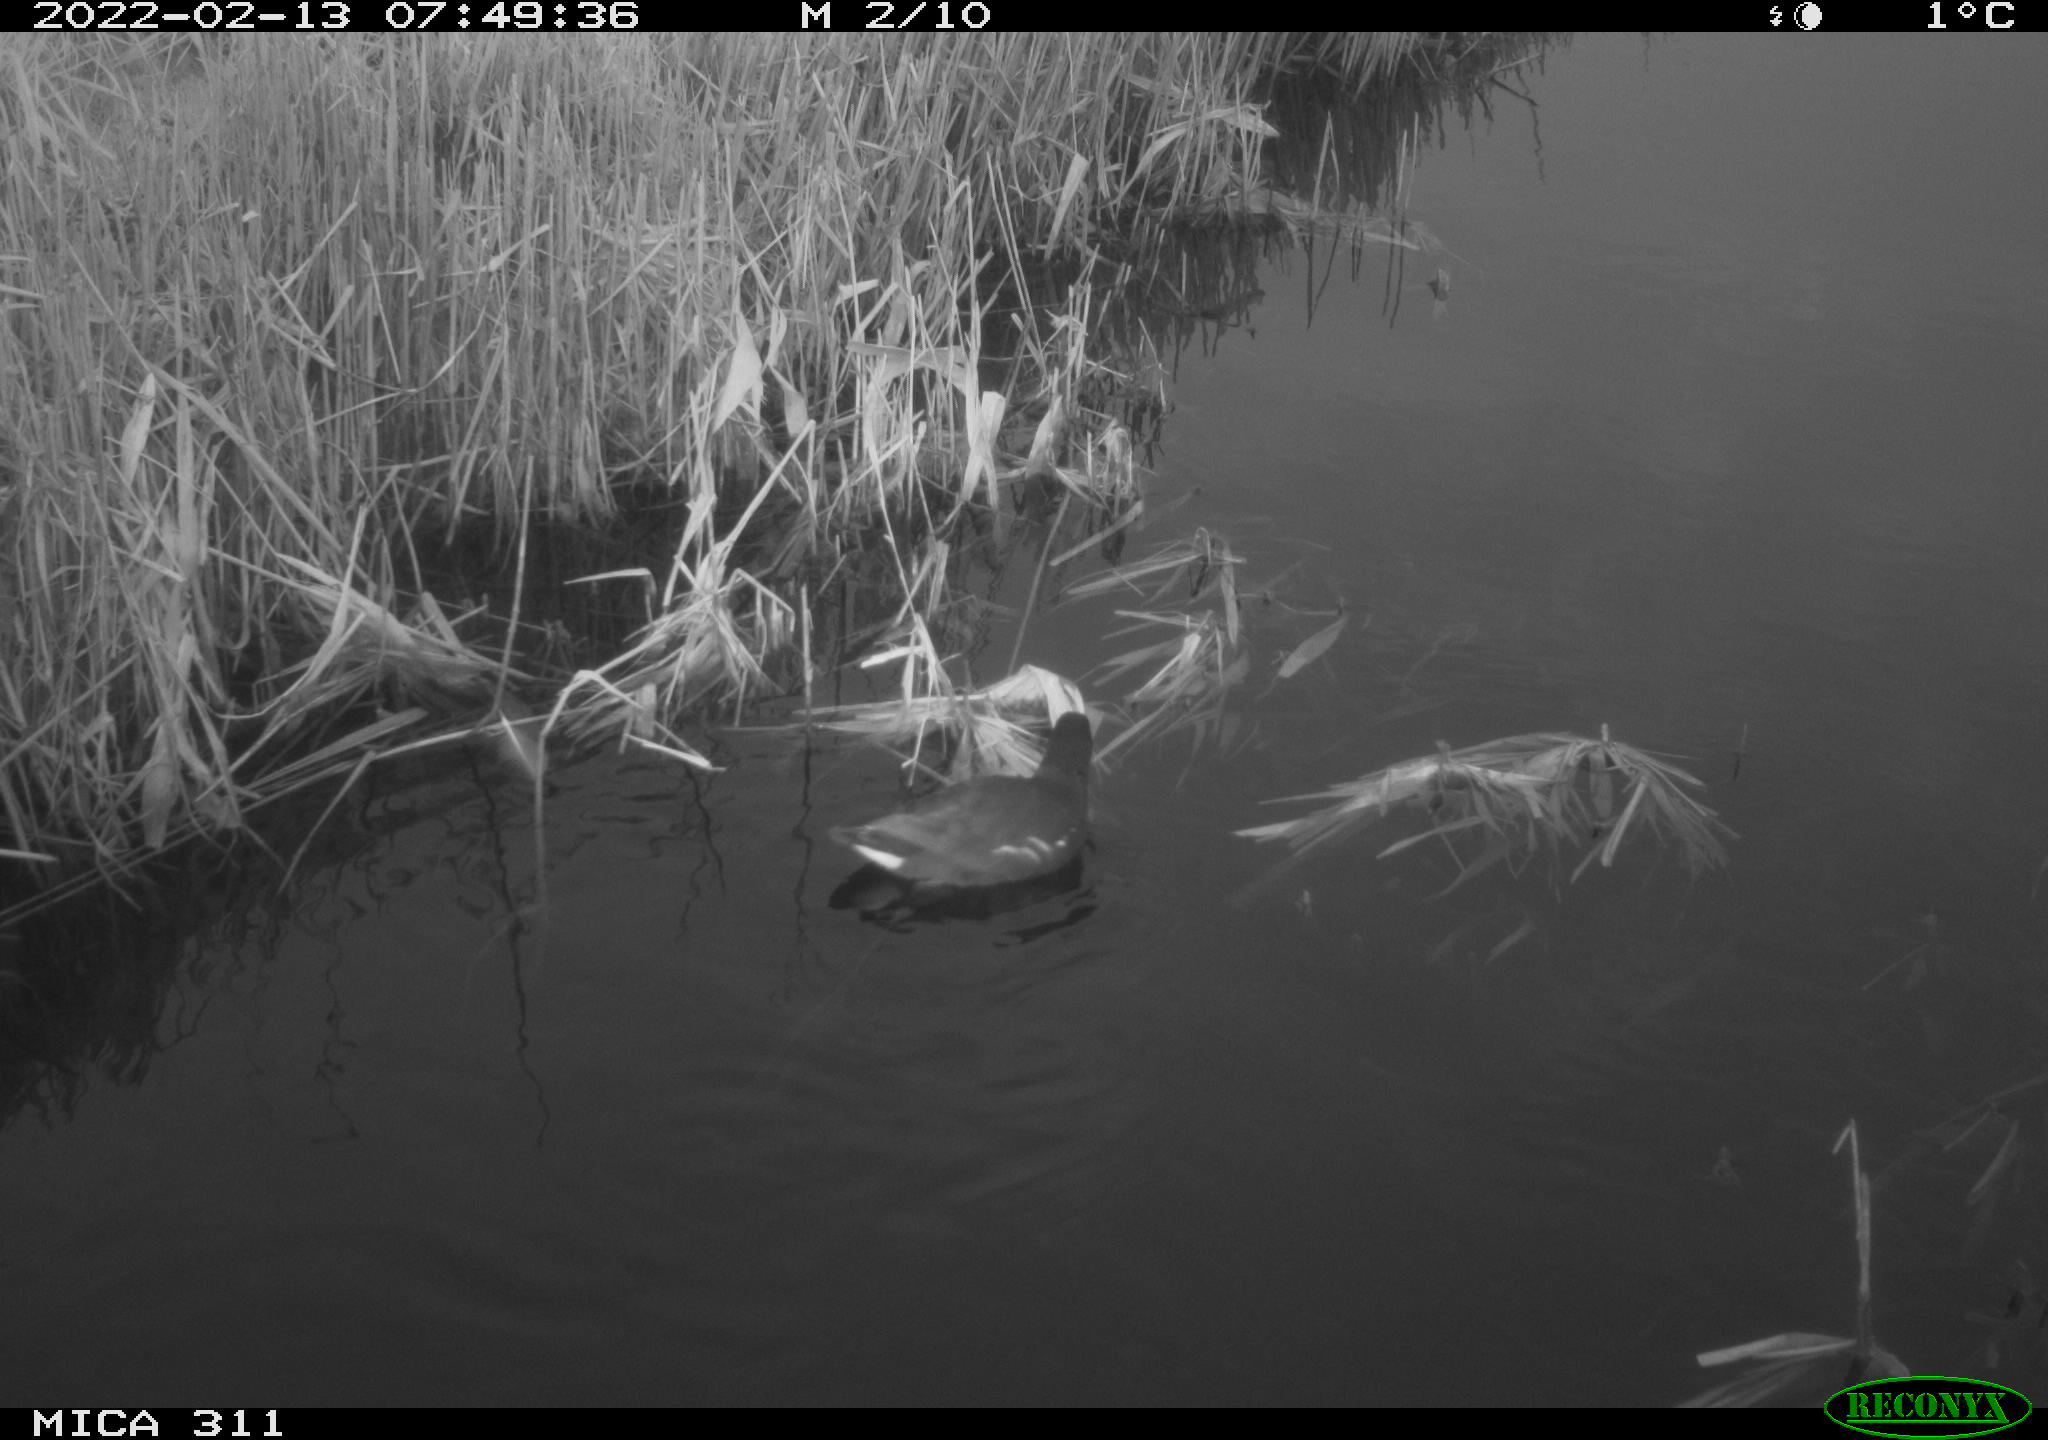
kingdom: Animalia
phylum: Chordata
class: Aves
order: Gruiformes
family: Rallidae
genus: Gallinula
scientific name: Gallinula chloropus
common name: Common moorhen
